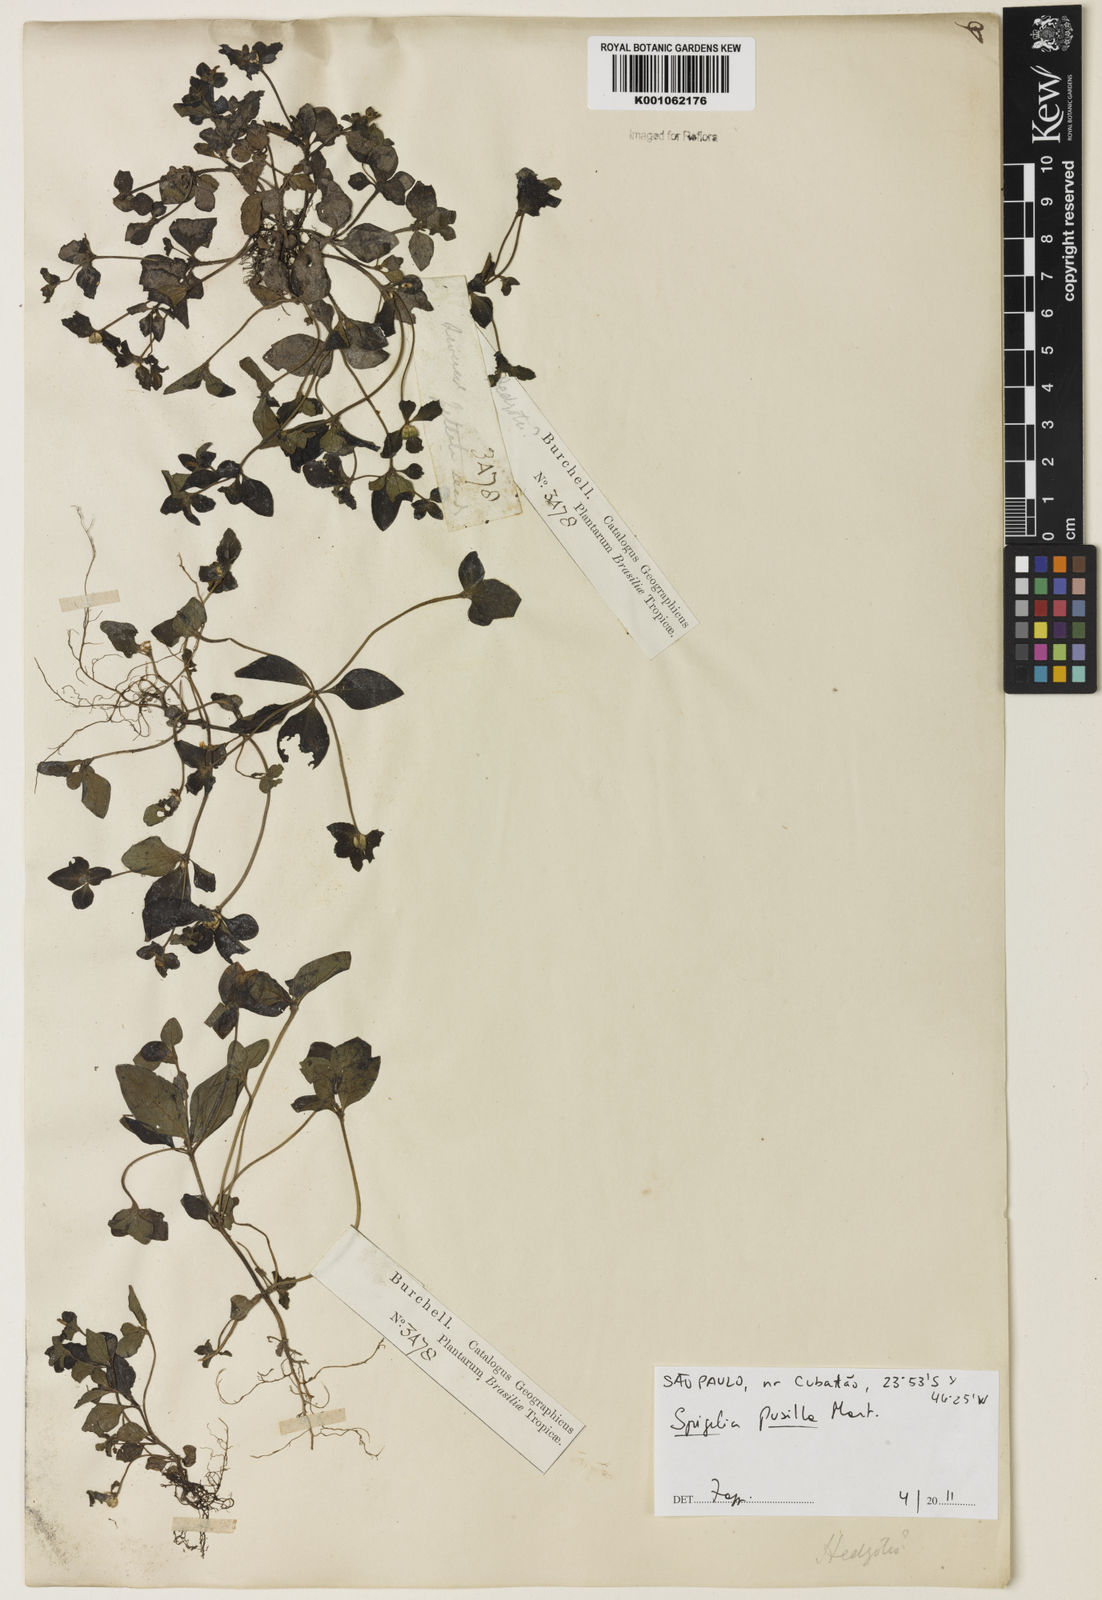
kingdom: Plantae
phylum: Tracheophyta
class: Magnoliopsida
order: Gentianales
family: Loganiaceae
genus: Spigelia
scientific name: Spigelia pusilla
